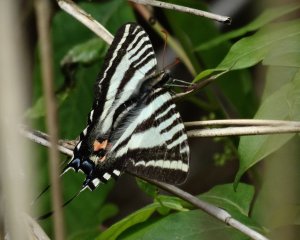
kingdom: Animalia
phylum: Arthropoda
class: Insecta
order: Lepidoptera
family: Papilionidae
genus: Protographium
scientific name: Protographium marcellus
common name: Zebra Swallowtail
